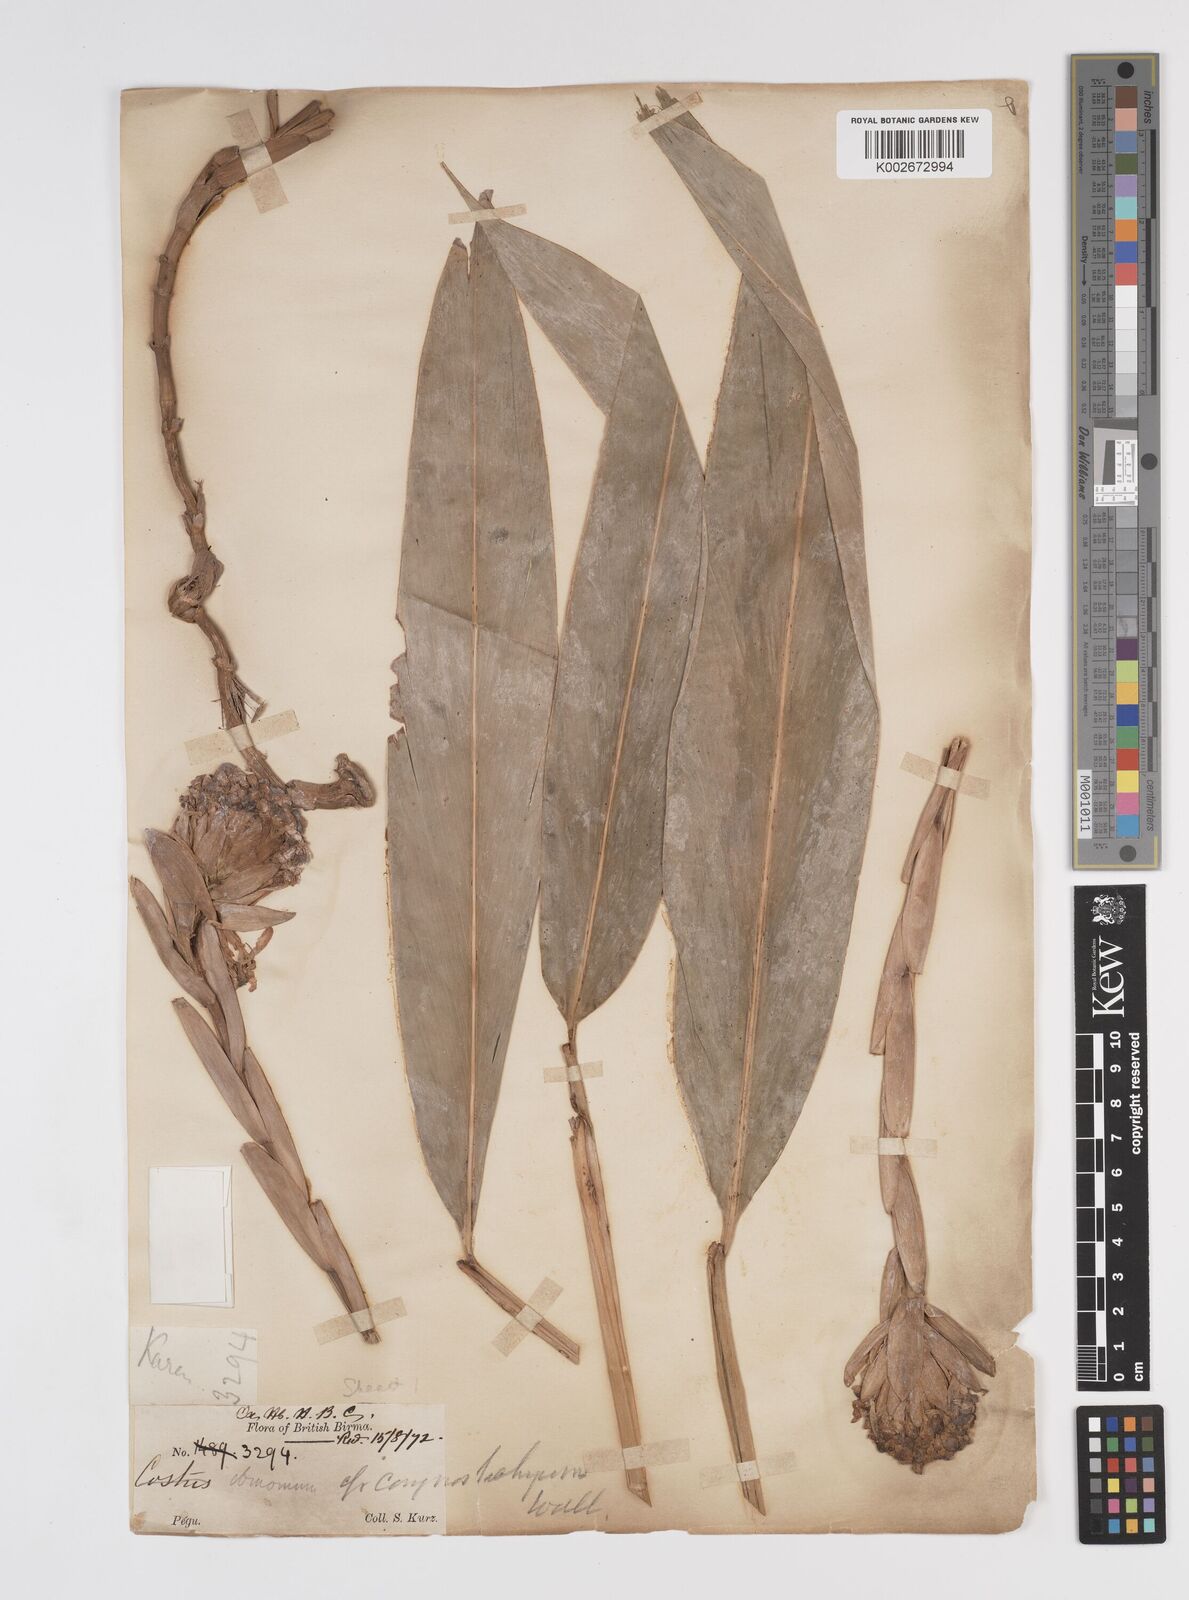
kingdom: Plantae
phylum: Tracheophyta
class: Liliopsida
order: Zingiberales
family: Zingiberaceae
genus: Meistera
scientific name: Meistera koenigii
